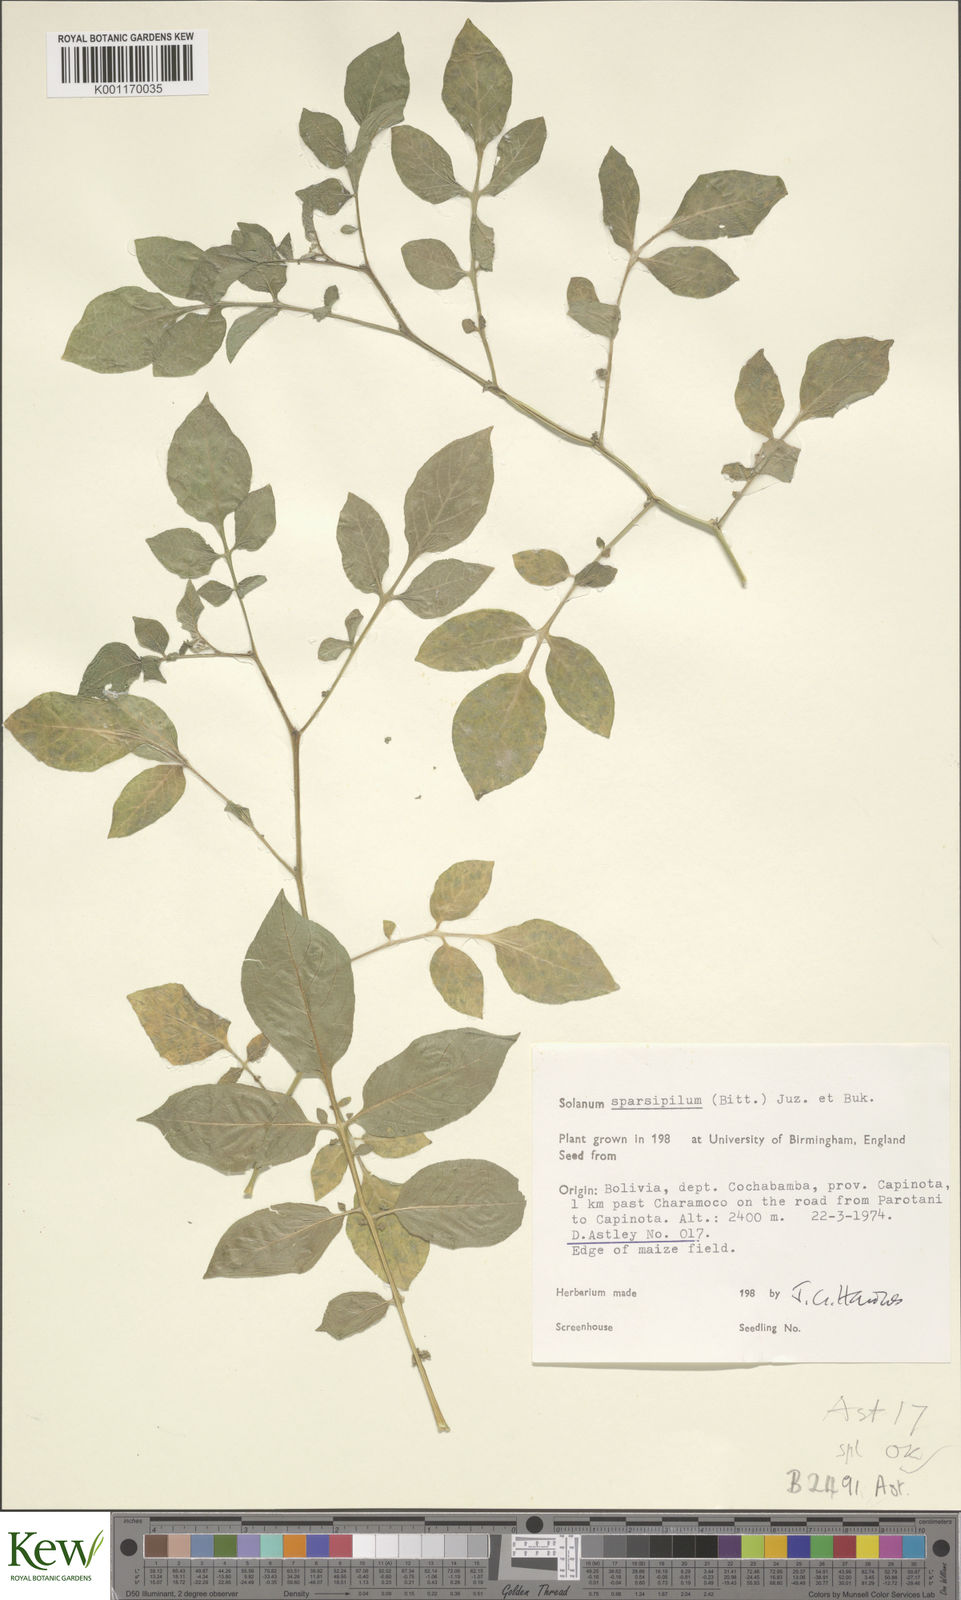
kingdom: Plantae
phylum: Tracheophyta
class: Magnoliopsida
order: Solanales
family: Solanaceae
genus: Solanum
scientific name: Solanum brevicaule
